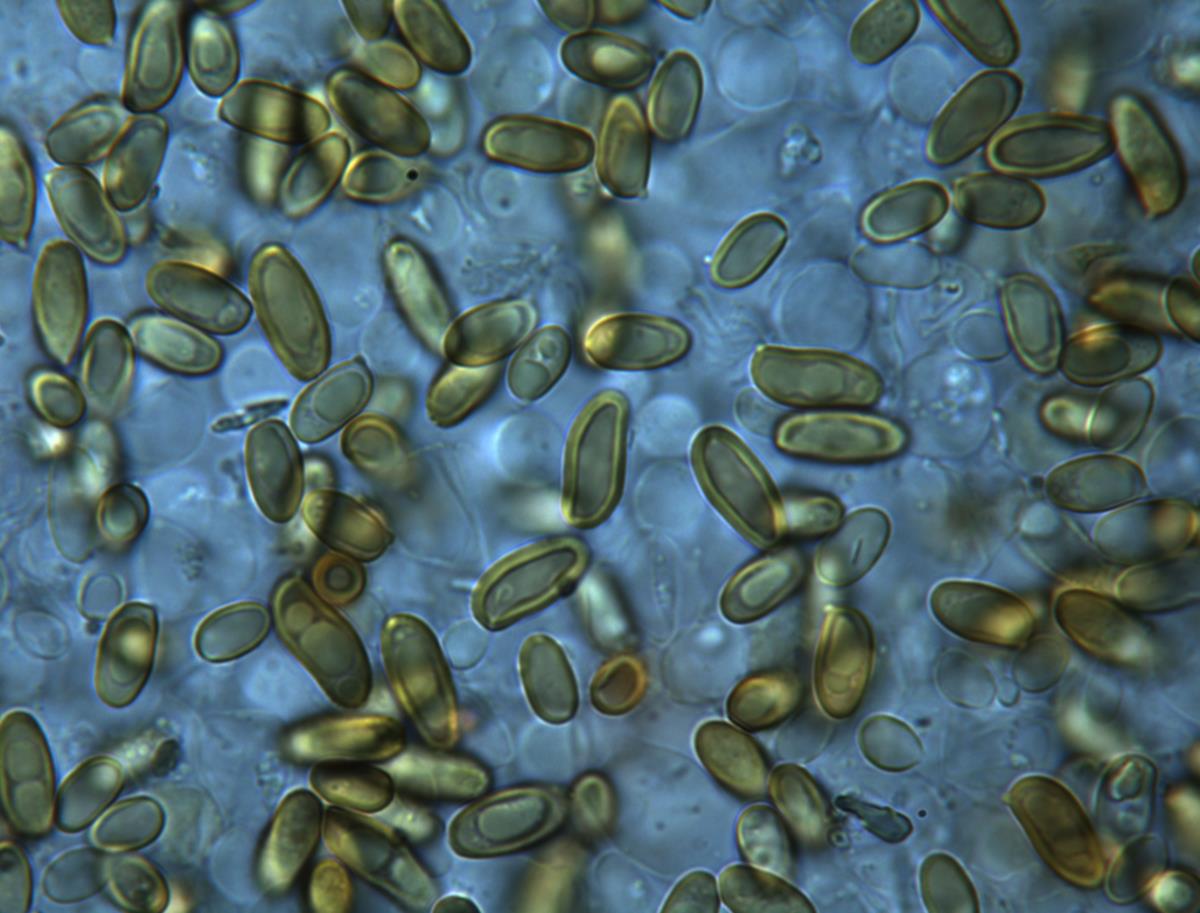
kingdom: Fungi
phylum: Basidiomycota
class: Agaricomycetes
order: Boletales
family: Serpulaceae
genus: Austropaxillus
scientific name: Austropaxillus squarrosus
